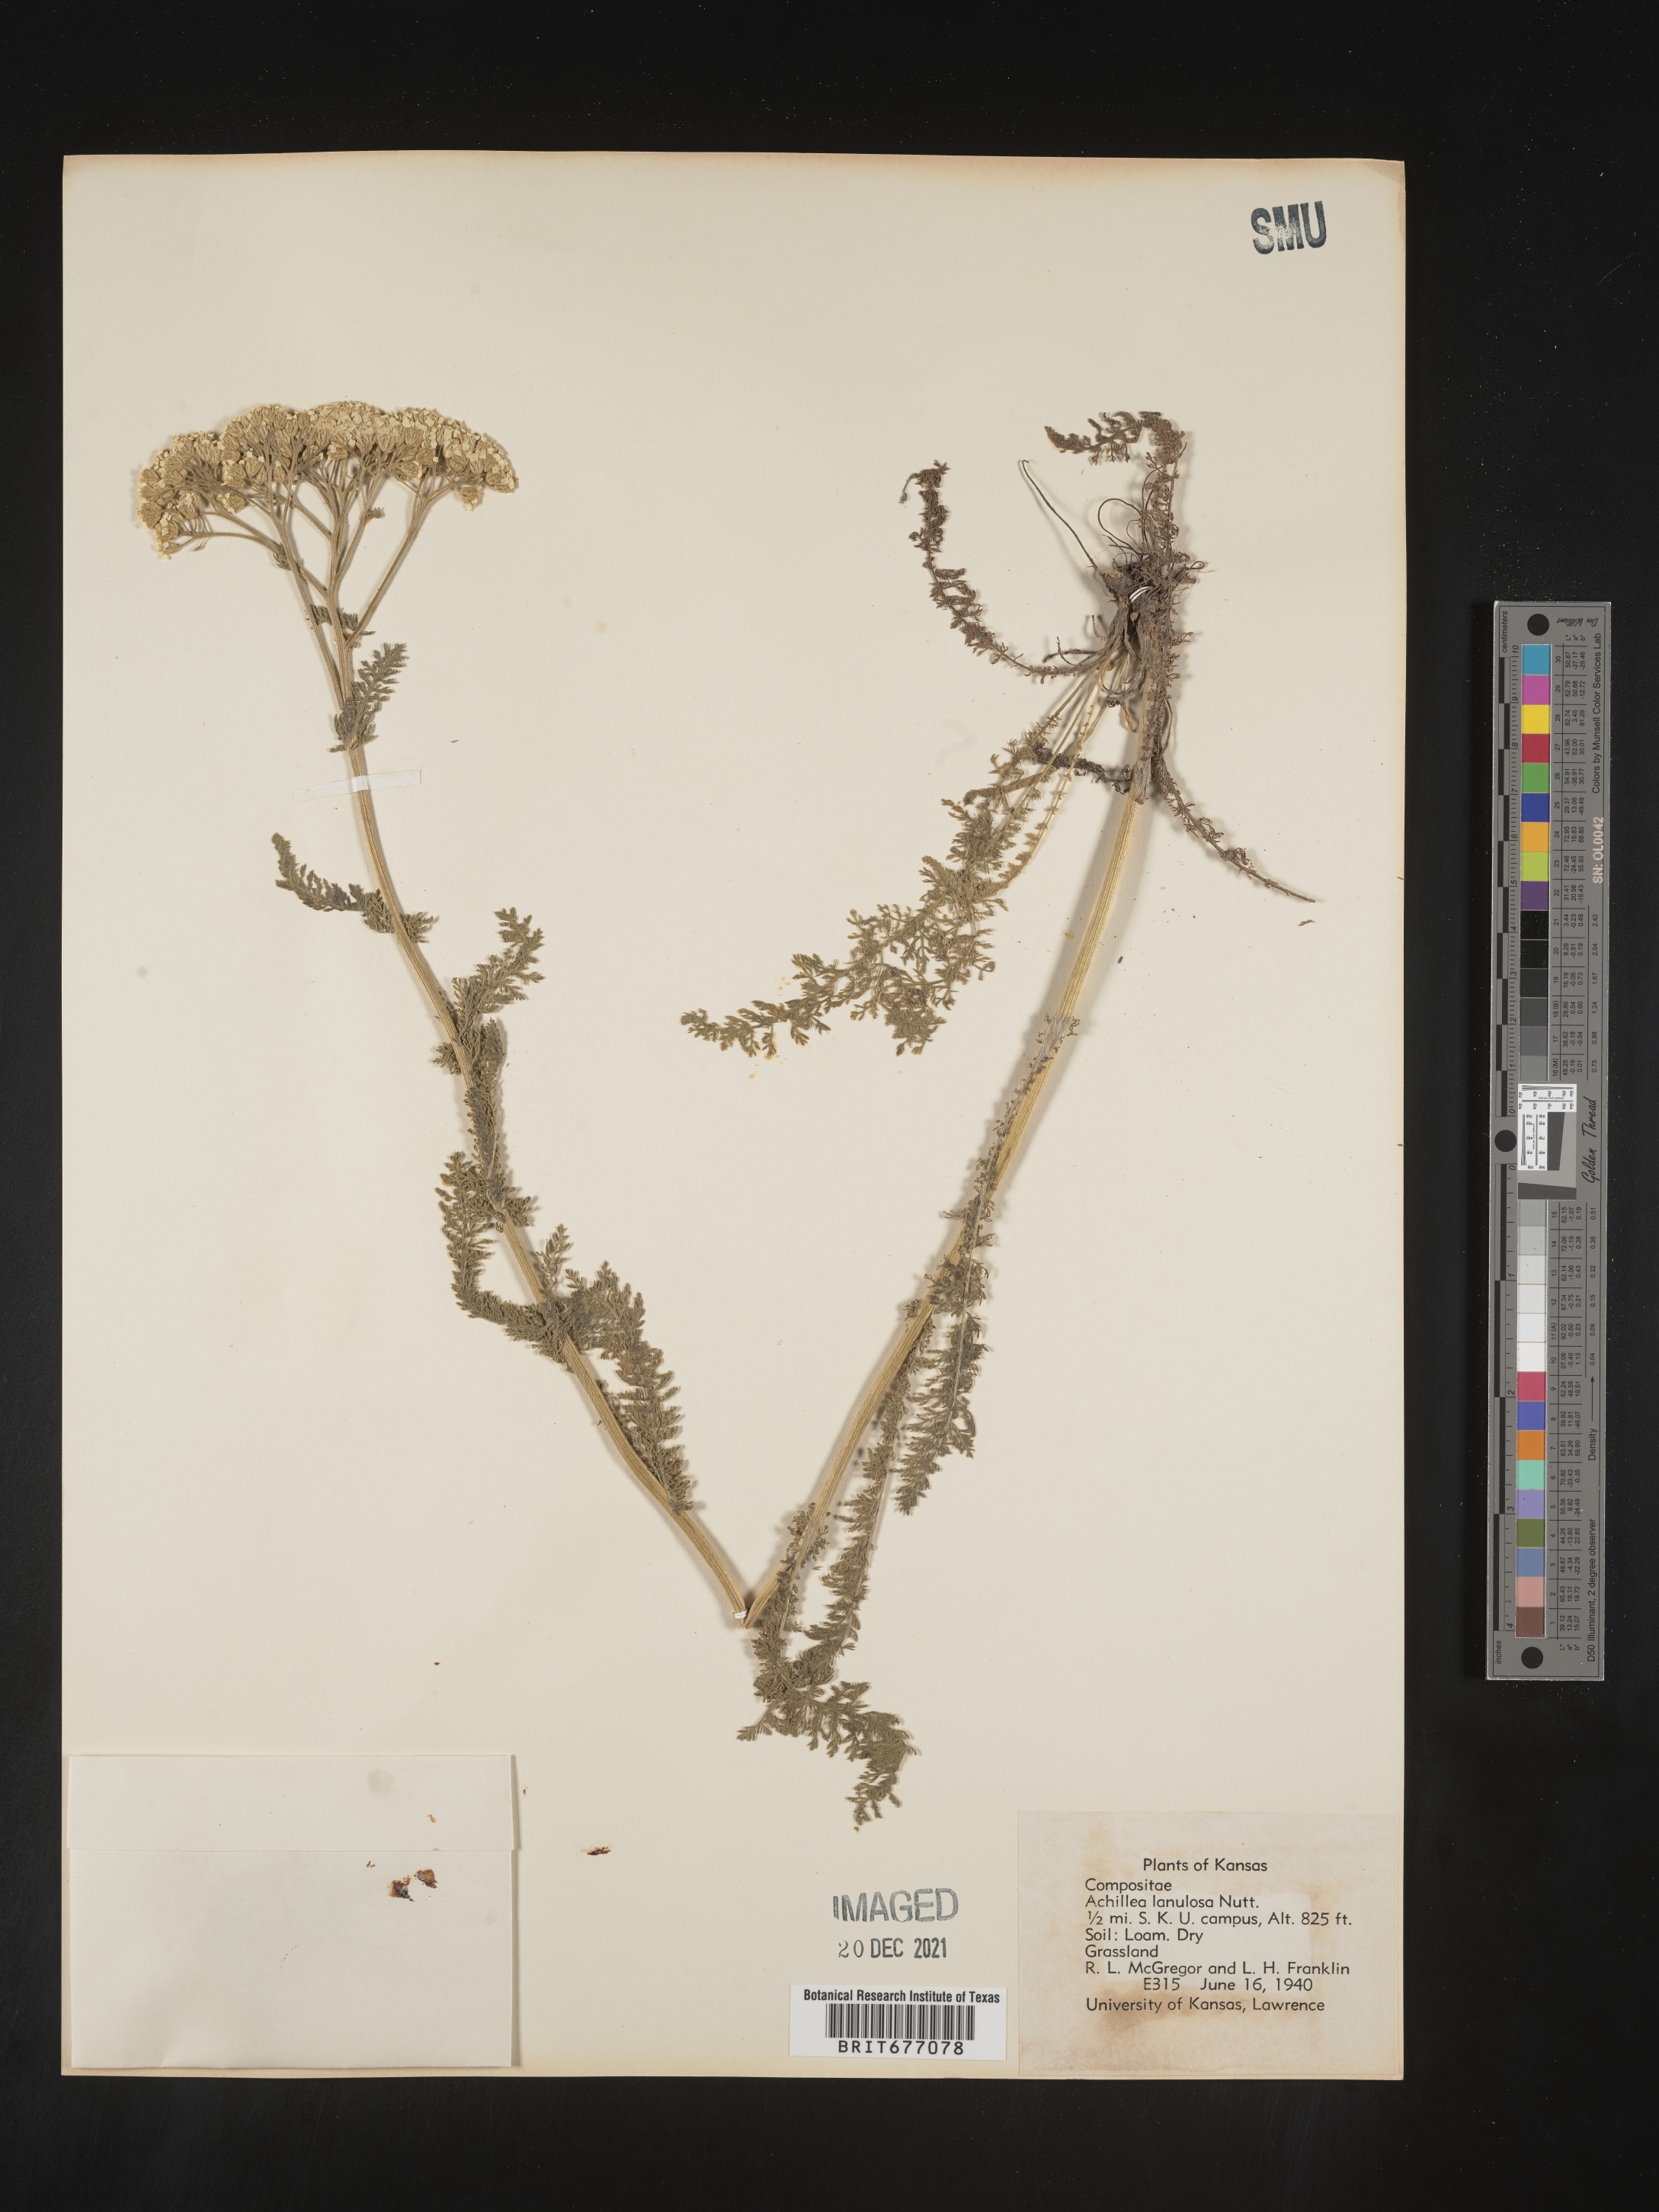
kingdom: Plantae
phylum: Tracheophyta
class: Magnoliopsida
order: Asterales
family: Asteraceae
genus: Achillea
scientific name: Achillea millefolium
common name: Yarrow
